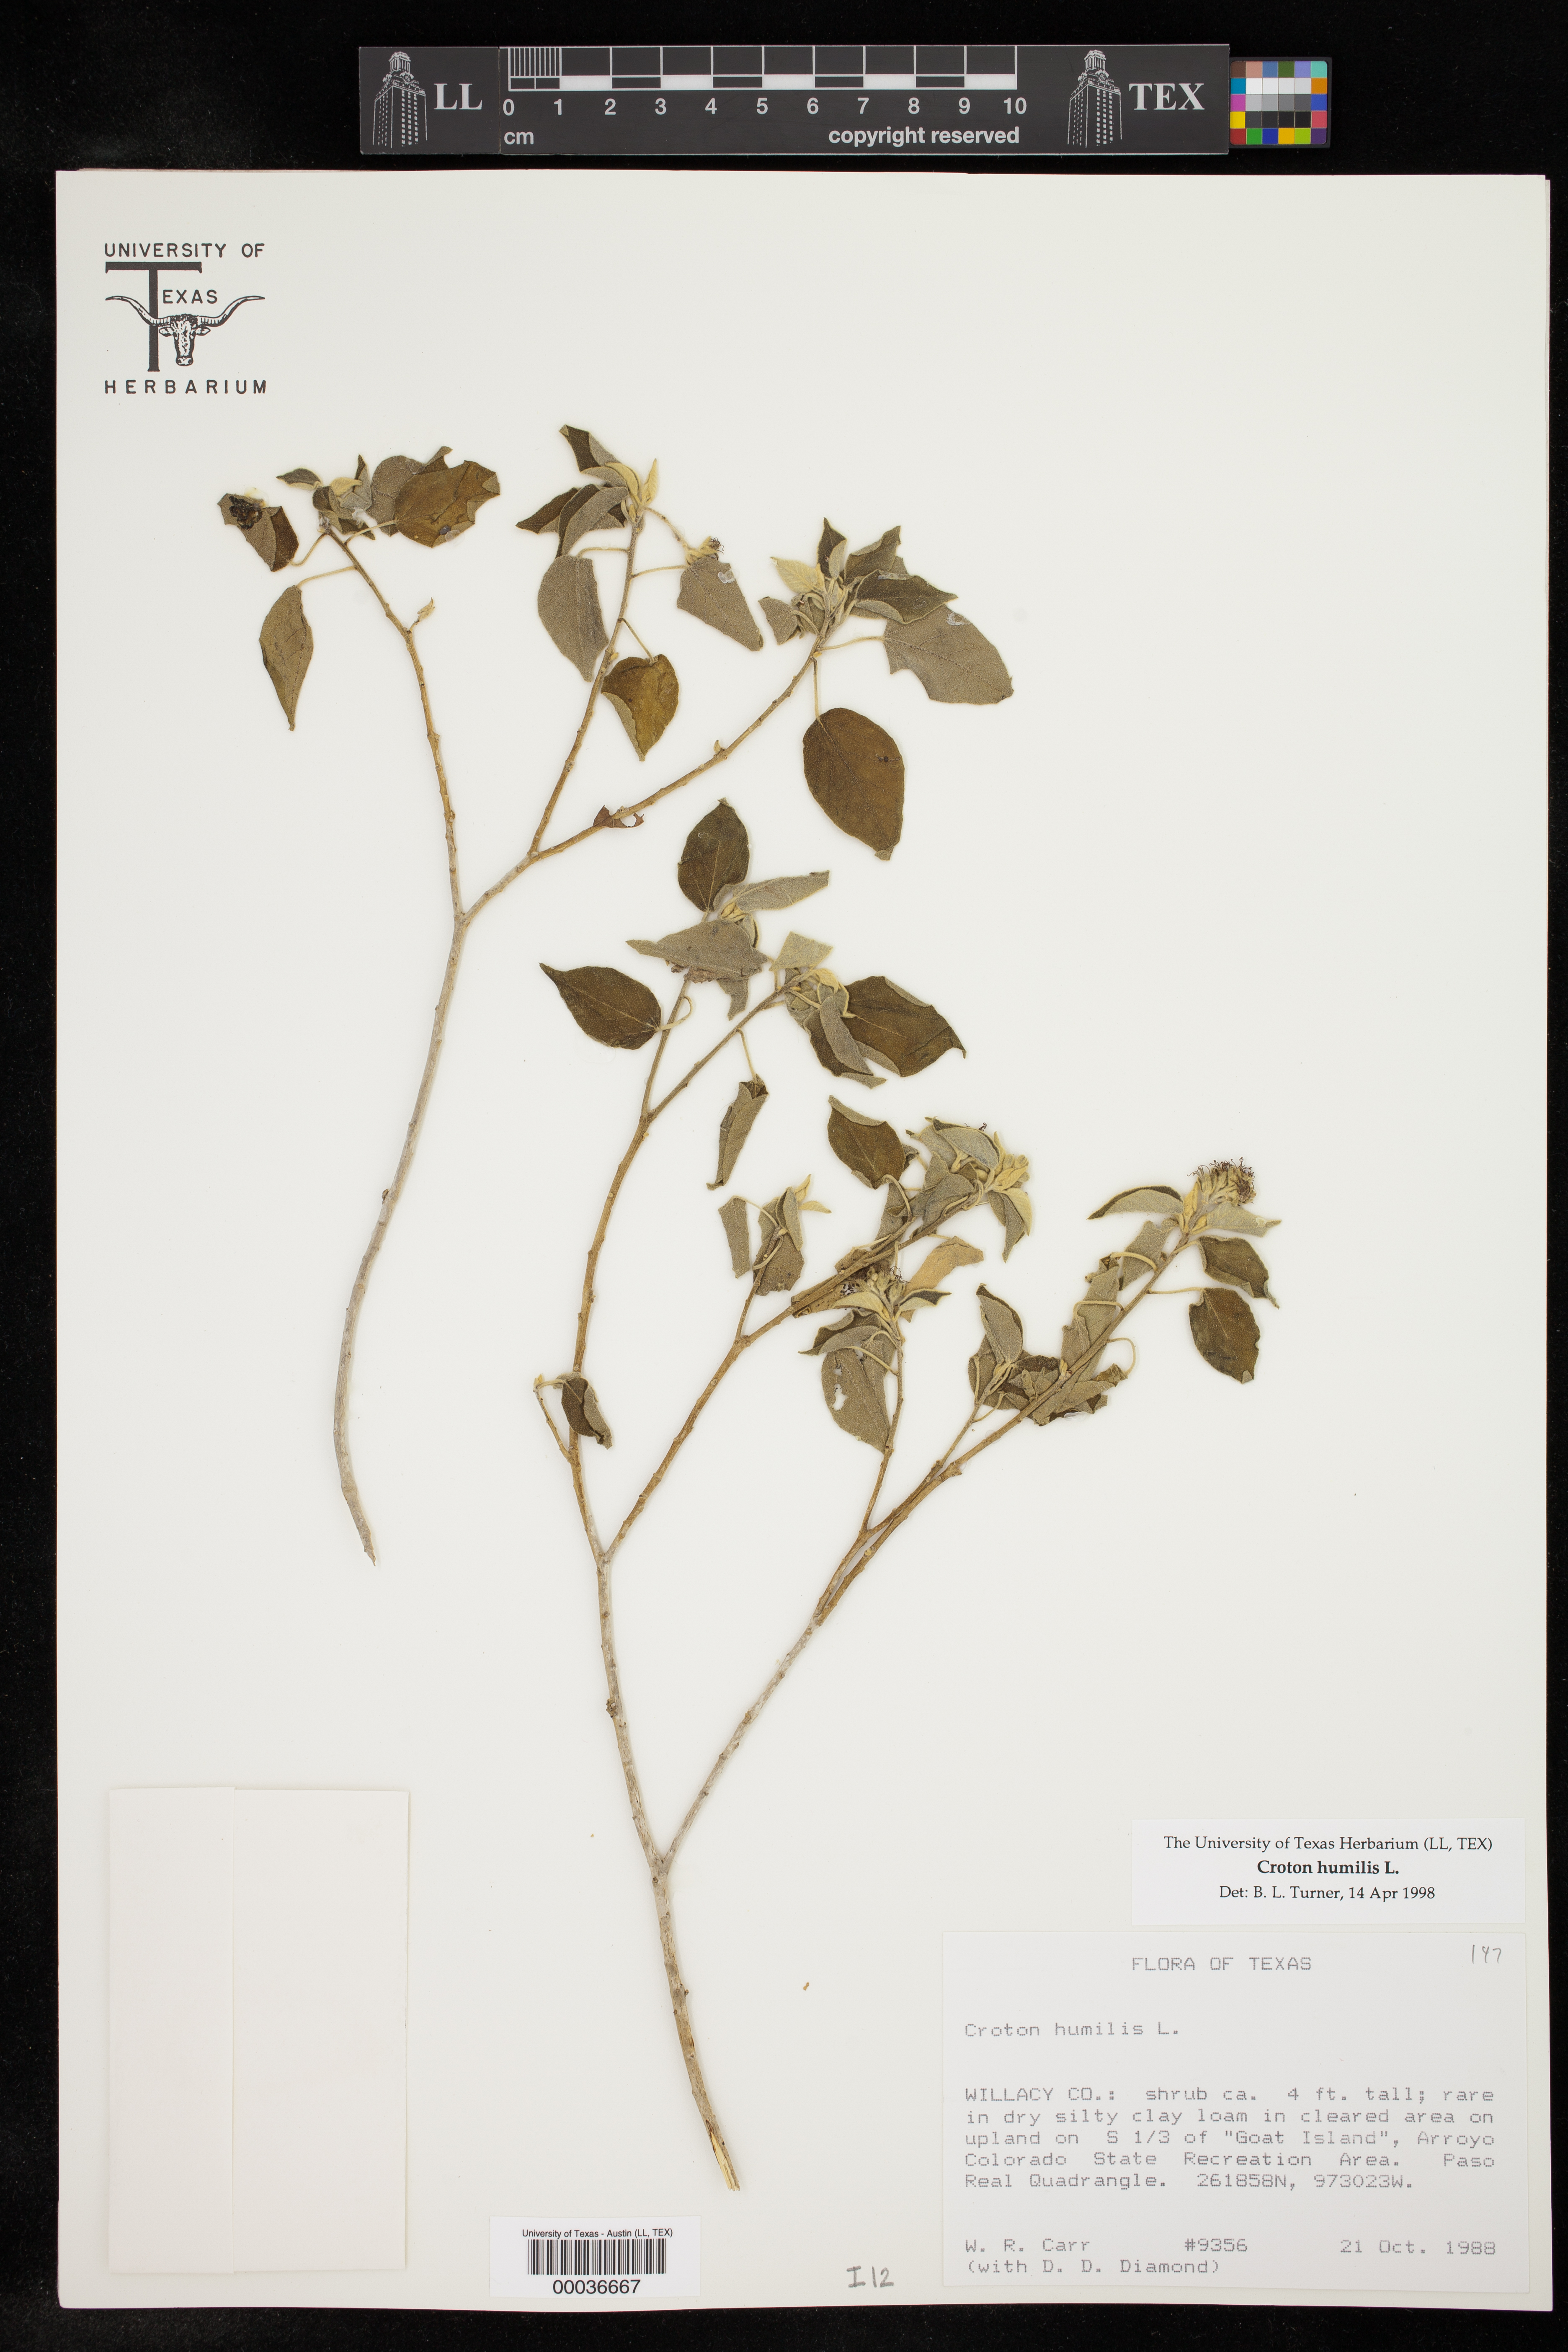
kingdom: Plantae
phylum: Tracheophyta
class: Magnoliopsida
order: Malpighiales
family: Euphorbiaceae
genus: Croton
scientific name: Croton humilis
